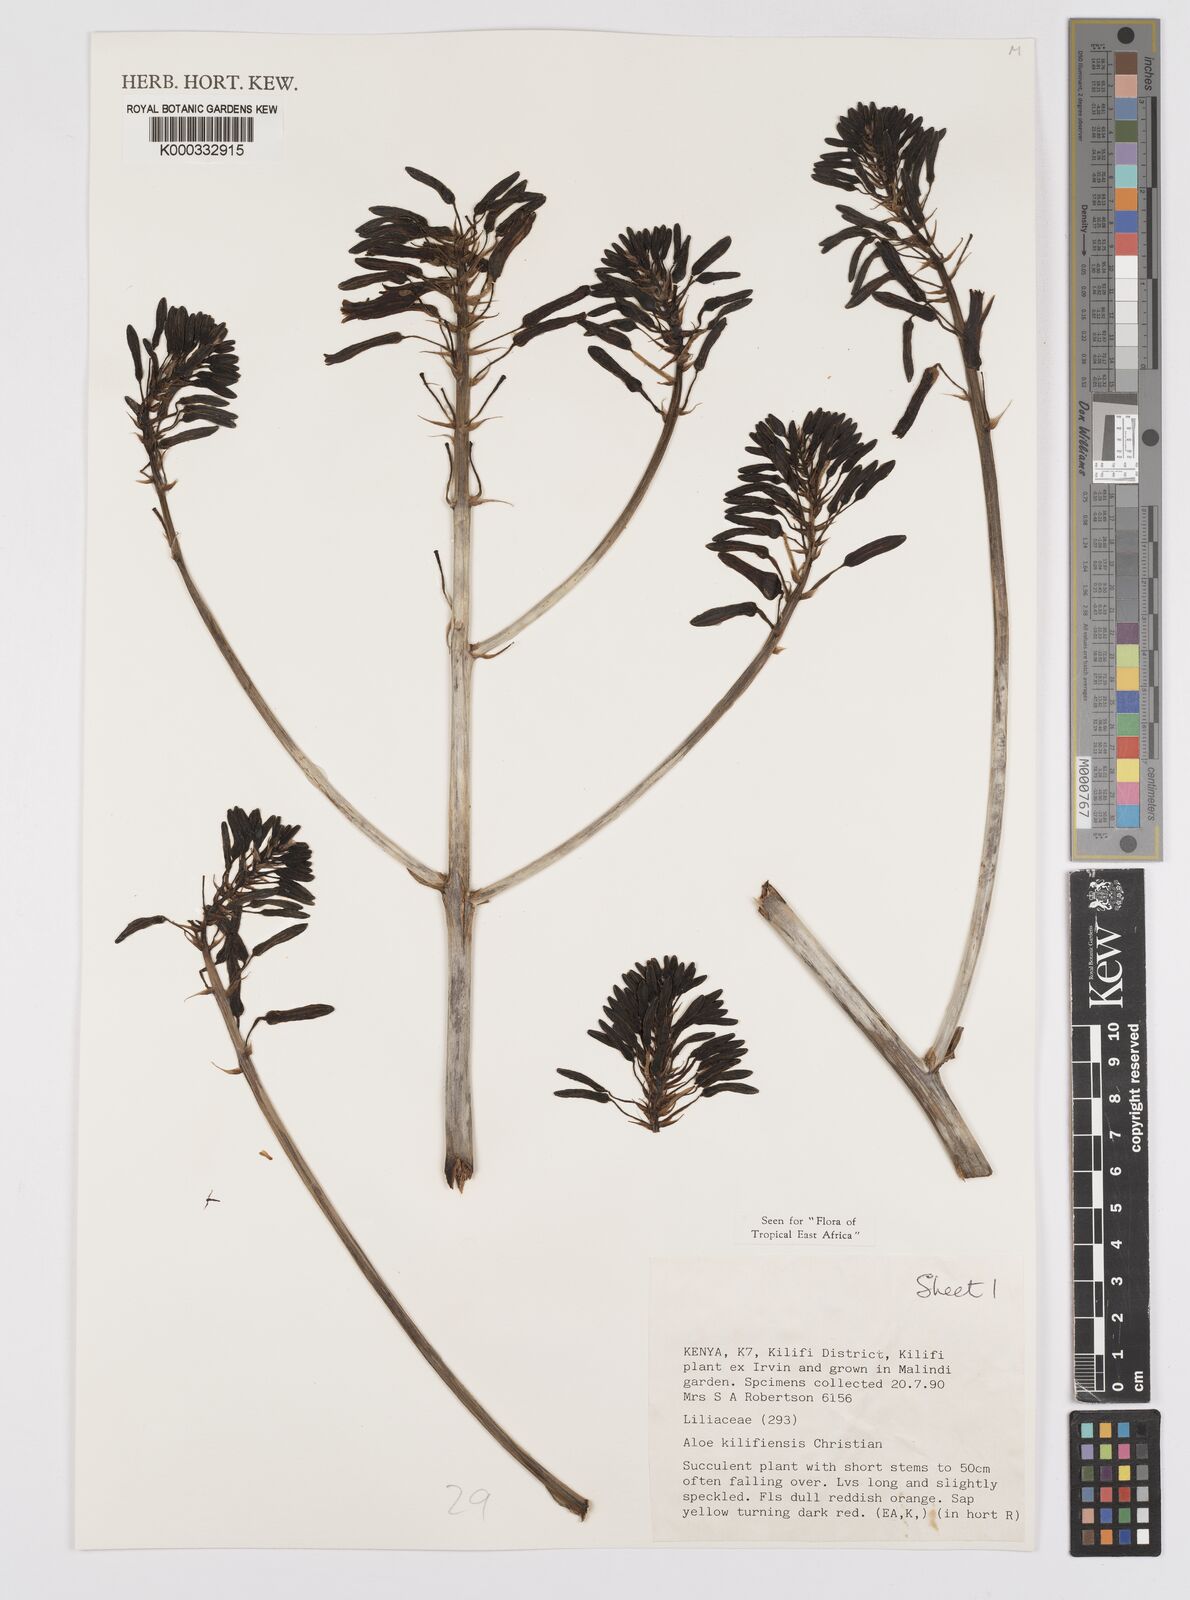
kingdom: Plantae
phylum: Tracheophyta
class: Liliopsida
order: Asparagales
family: Asphodelaceae
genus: Aloe
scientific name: Aloe kilifiensis
